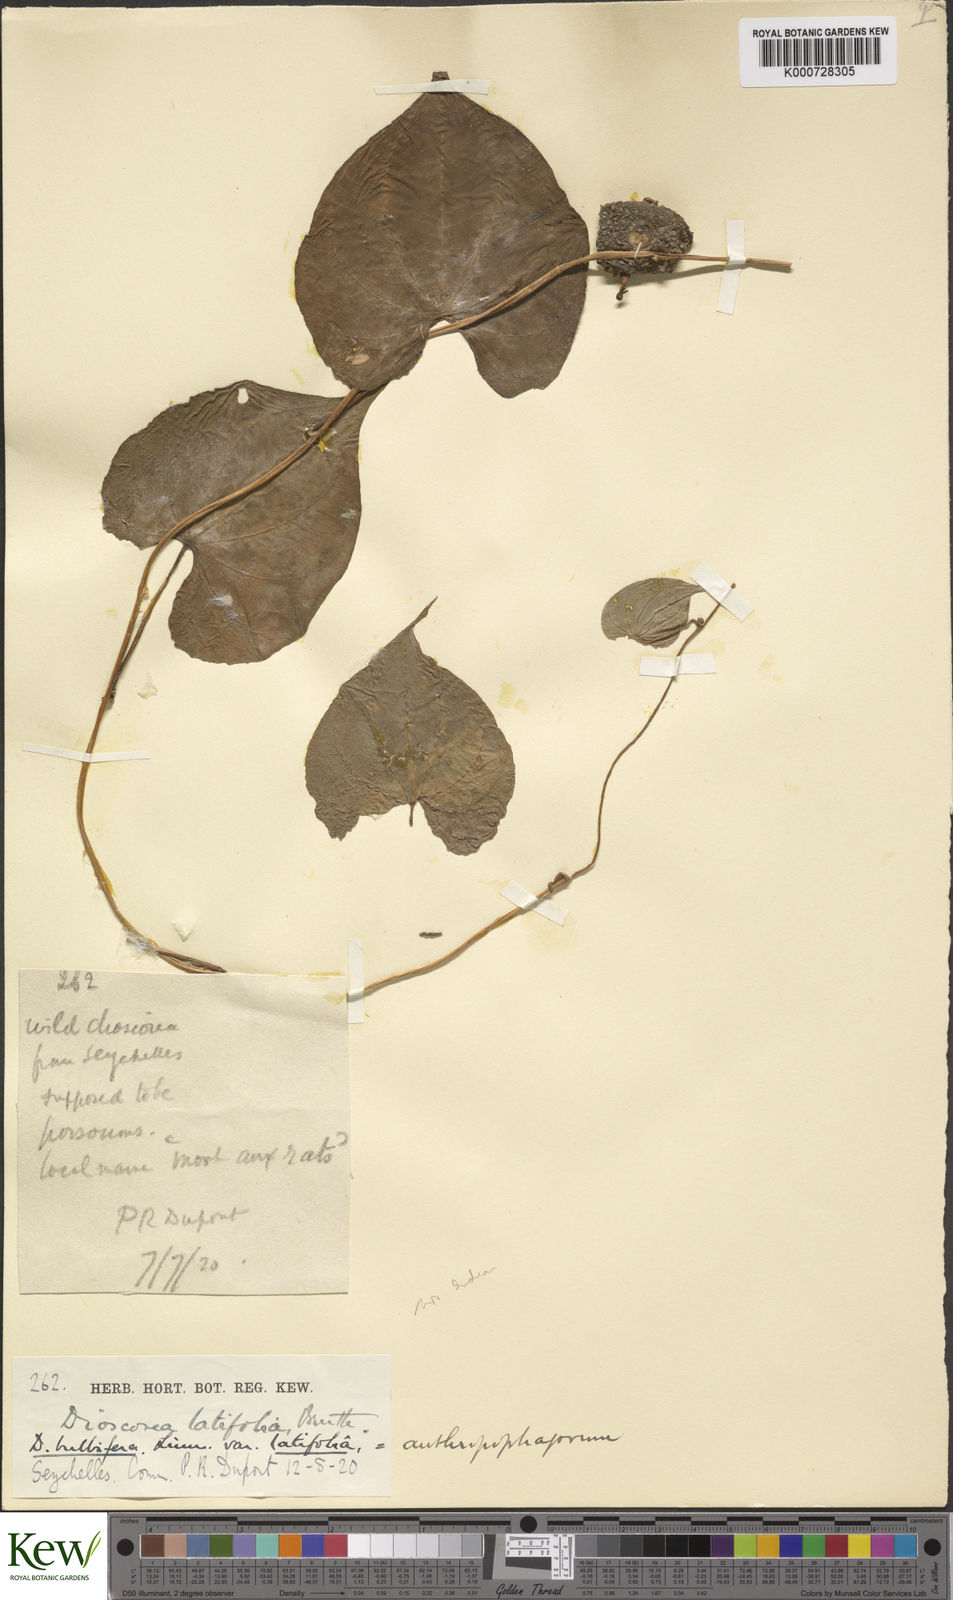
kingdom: Plantae
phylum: Tracheophyta
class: Liliopsida
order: Dioscoreales
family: Dioscoreaceae
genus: Dioscorea
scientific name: Dioscorea bulbifera
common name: Air yam
